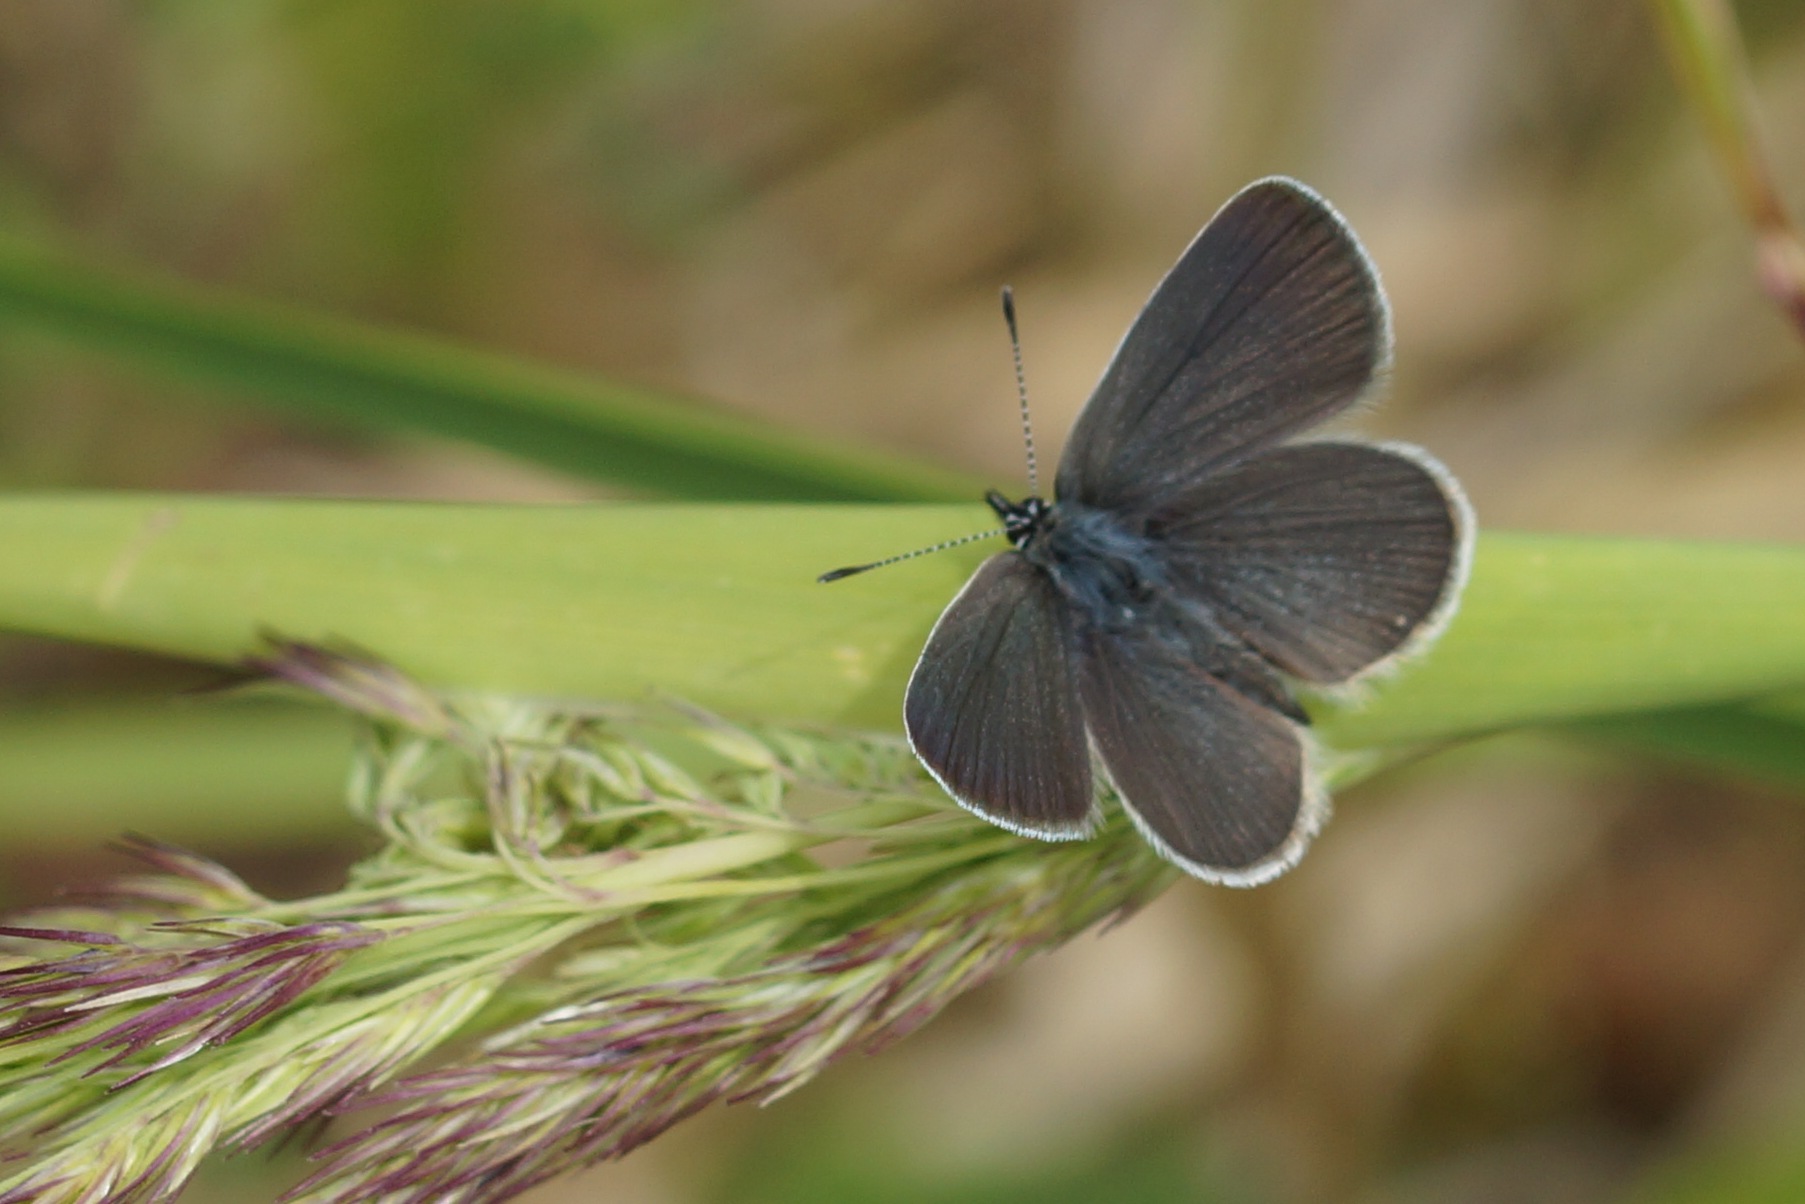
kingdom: Animalia
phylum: Arthropoda
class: Insecta
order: Lepidoptera
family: Lycaenidae
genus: Cupido
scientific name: Cupido minimus
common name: Dværgblåfugl
